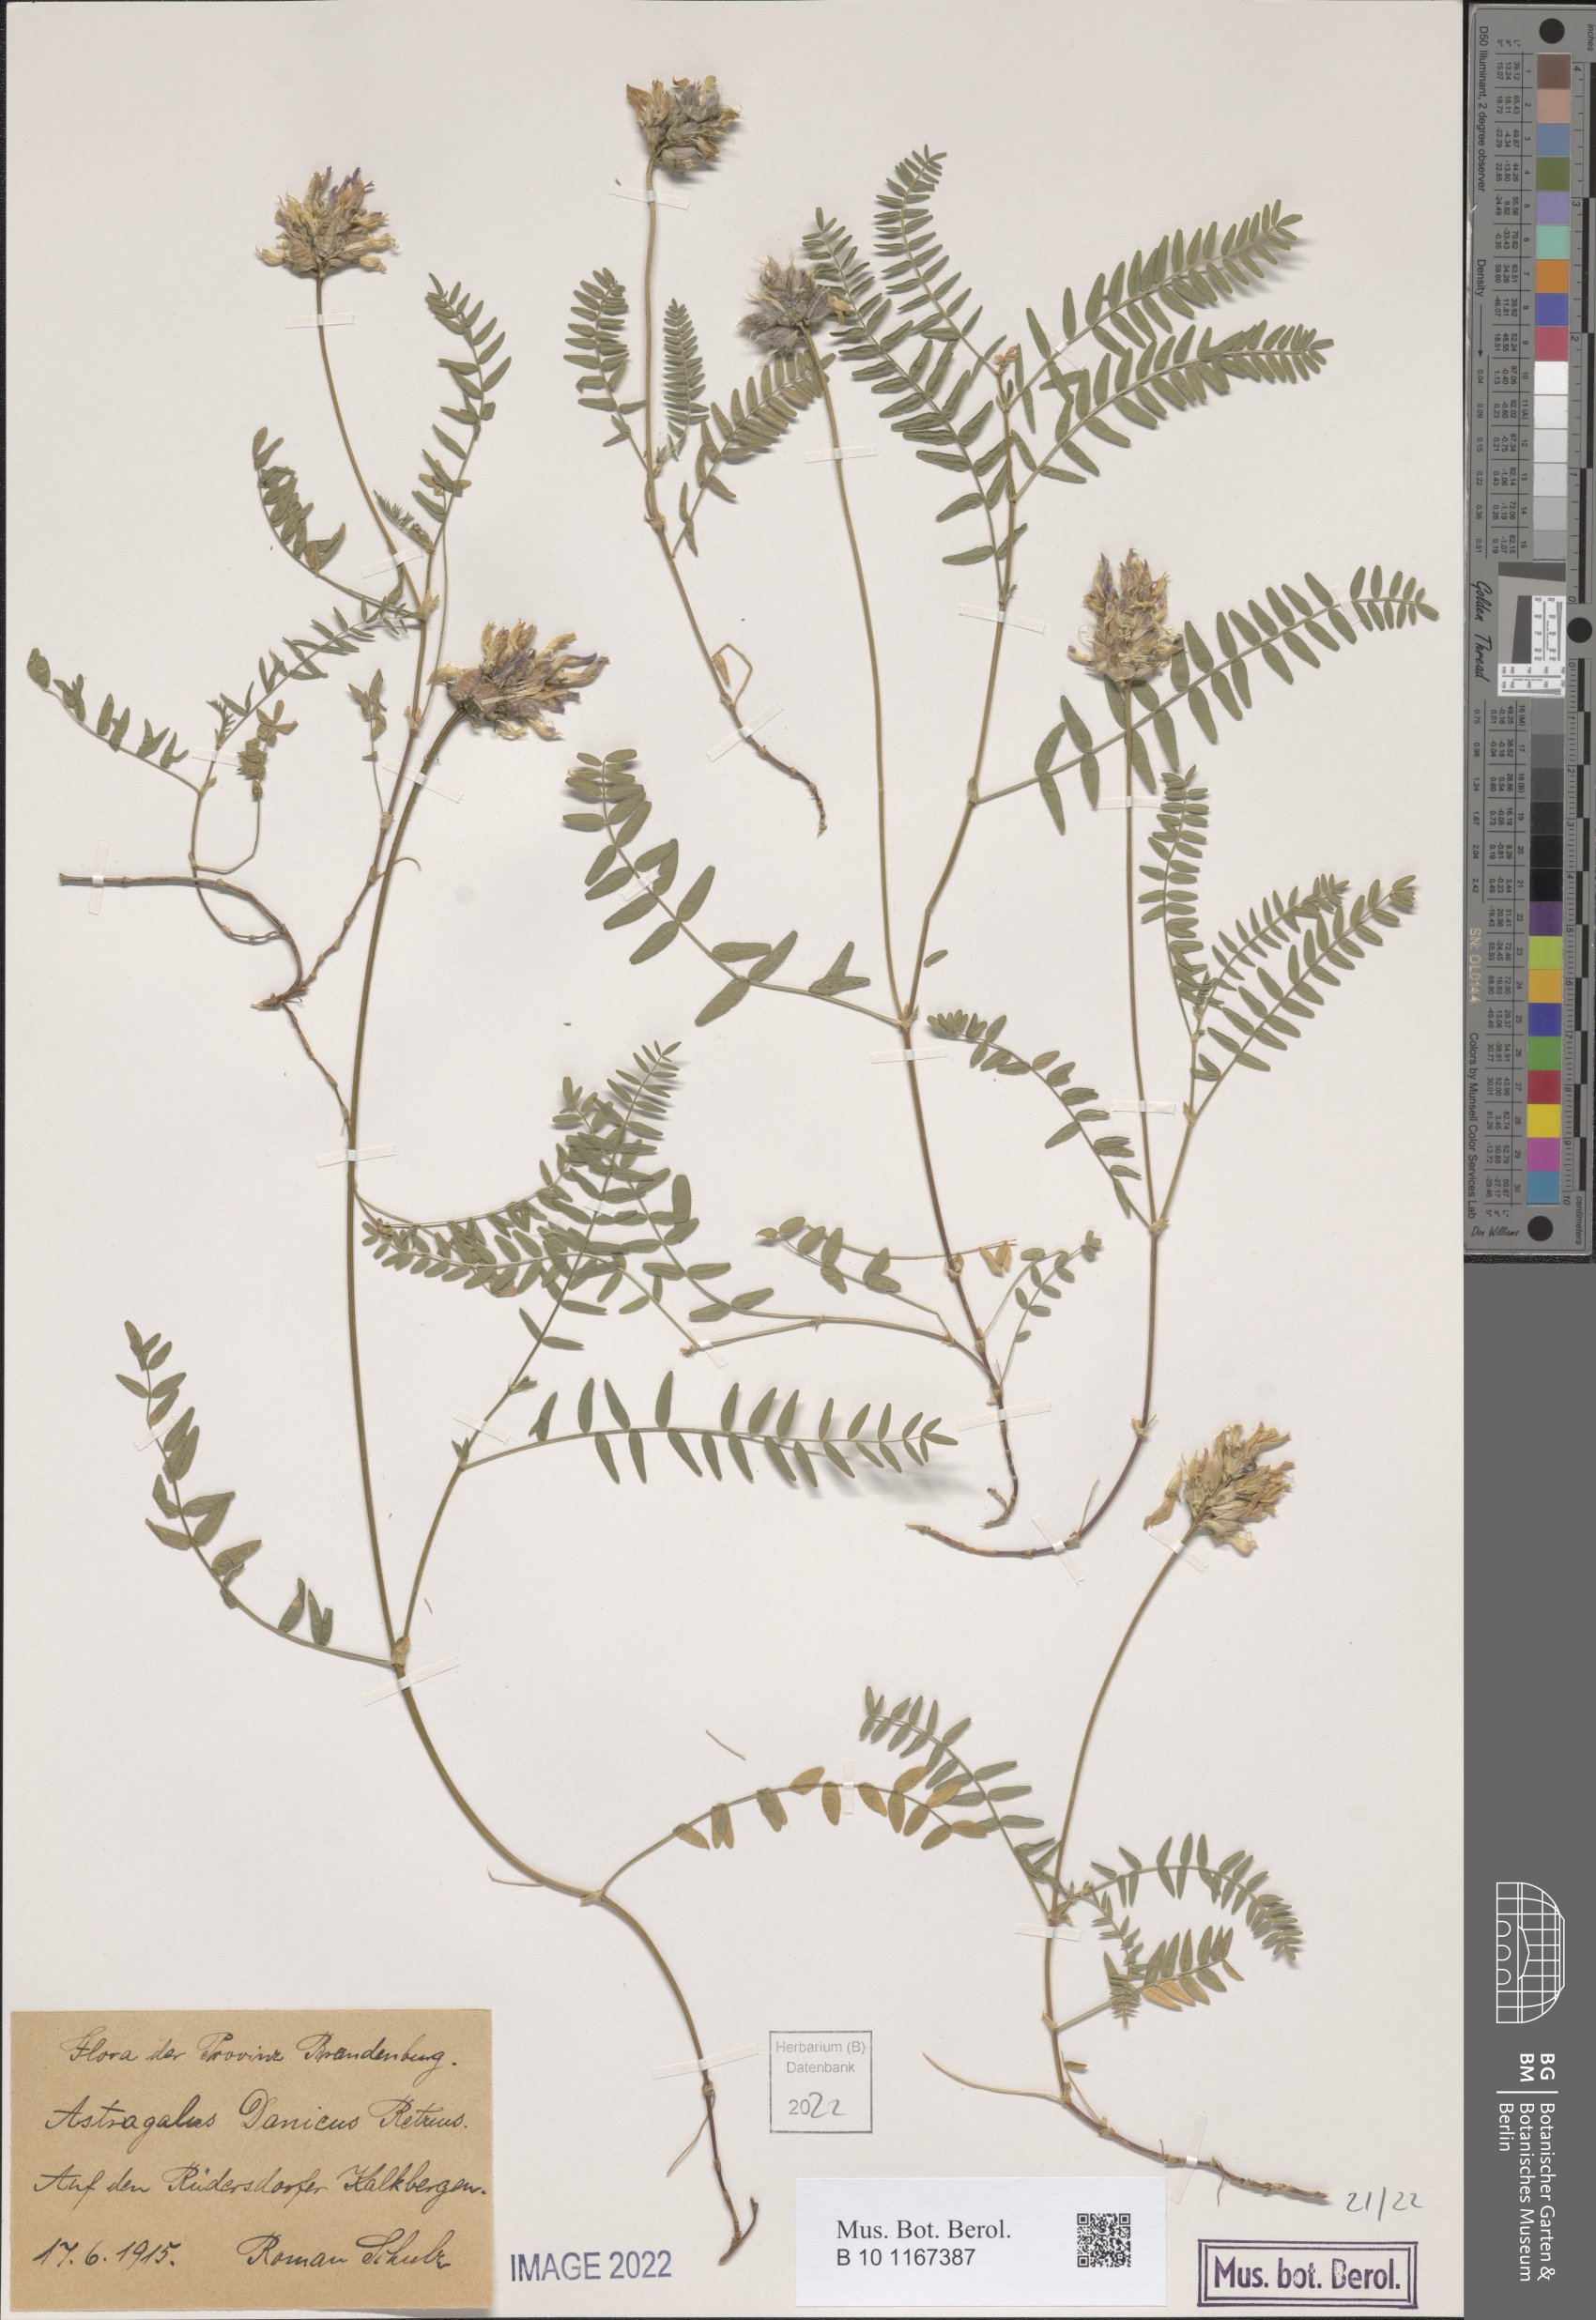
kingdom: Plantae
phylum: Tracheophyta
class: Magnoliopsida
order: Fabales
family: Fabaceae
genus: Astragalus
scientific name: Astragalus danicus
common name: Purple milk-vetch
